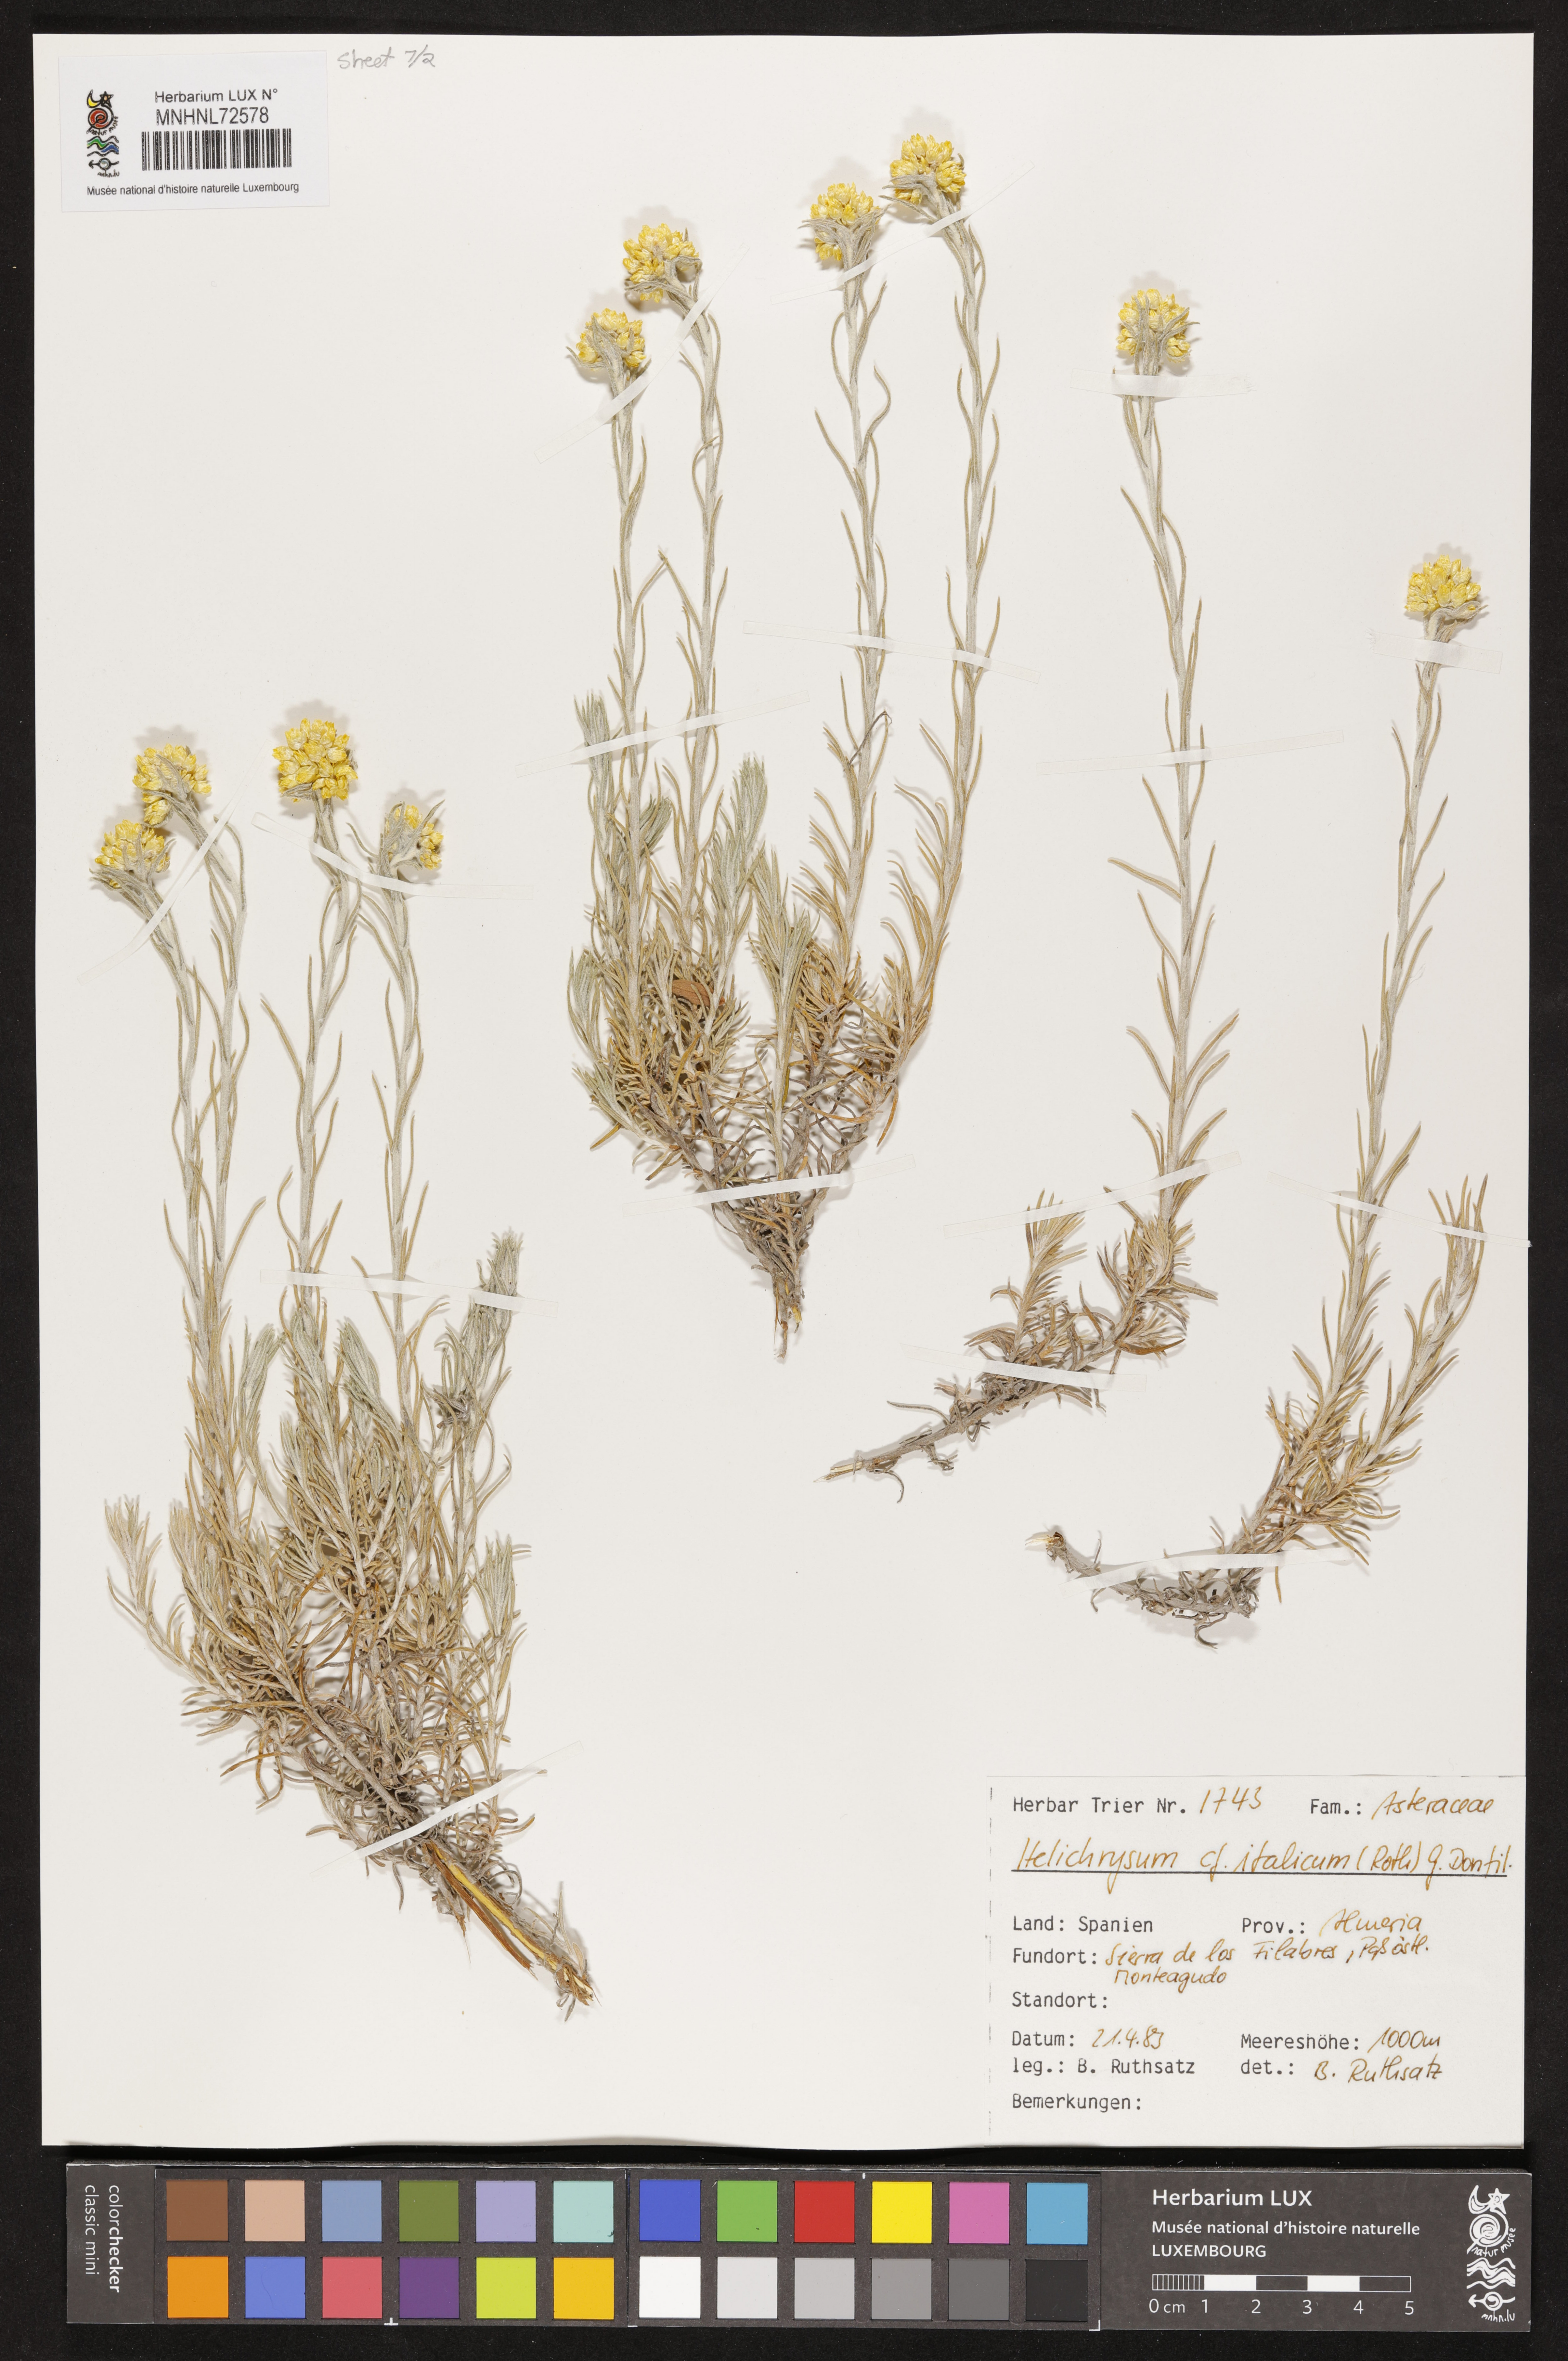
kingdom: Plantae
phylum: Tracheophyta
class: Magnoliopsida
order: Asterales
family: Asteraceae
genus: Helichrysum
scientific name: Helichrysum italicum
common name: Curryplant
